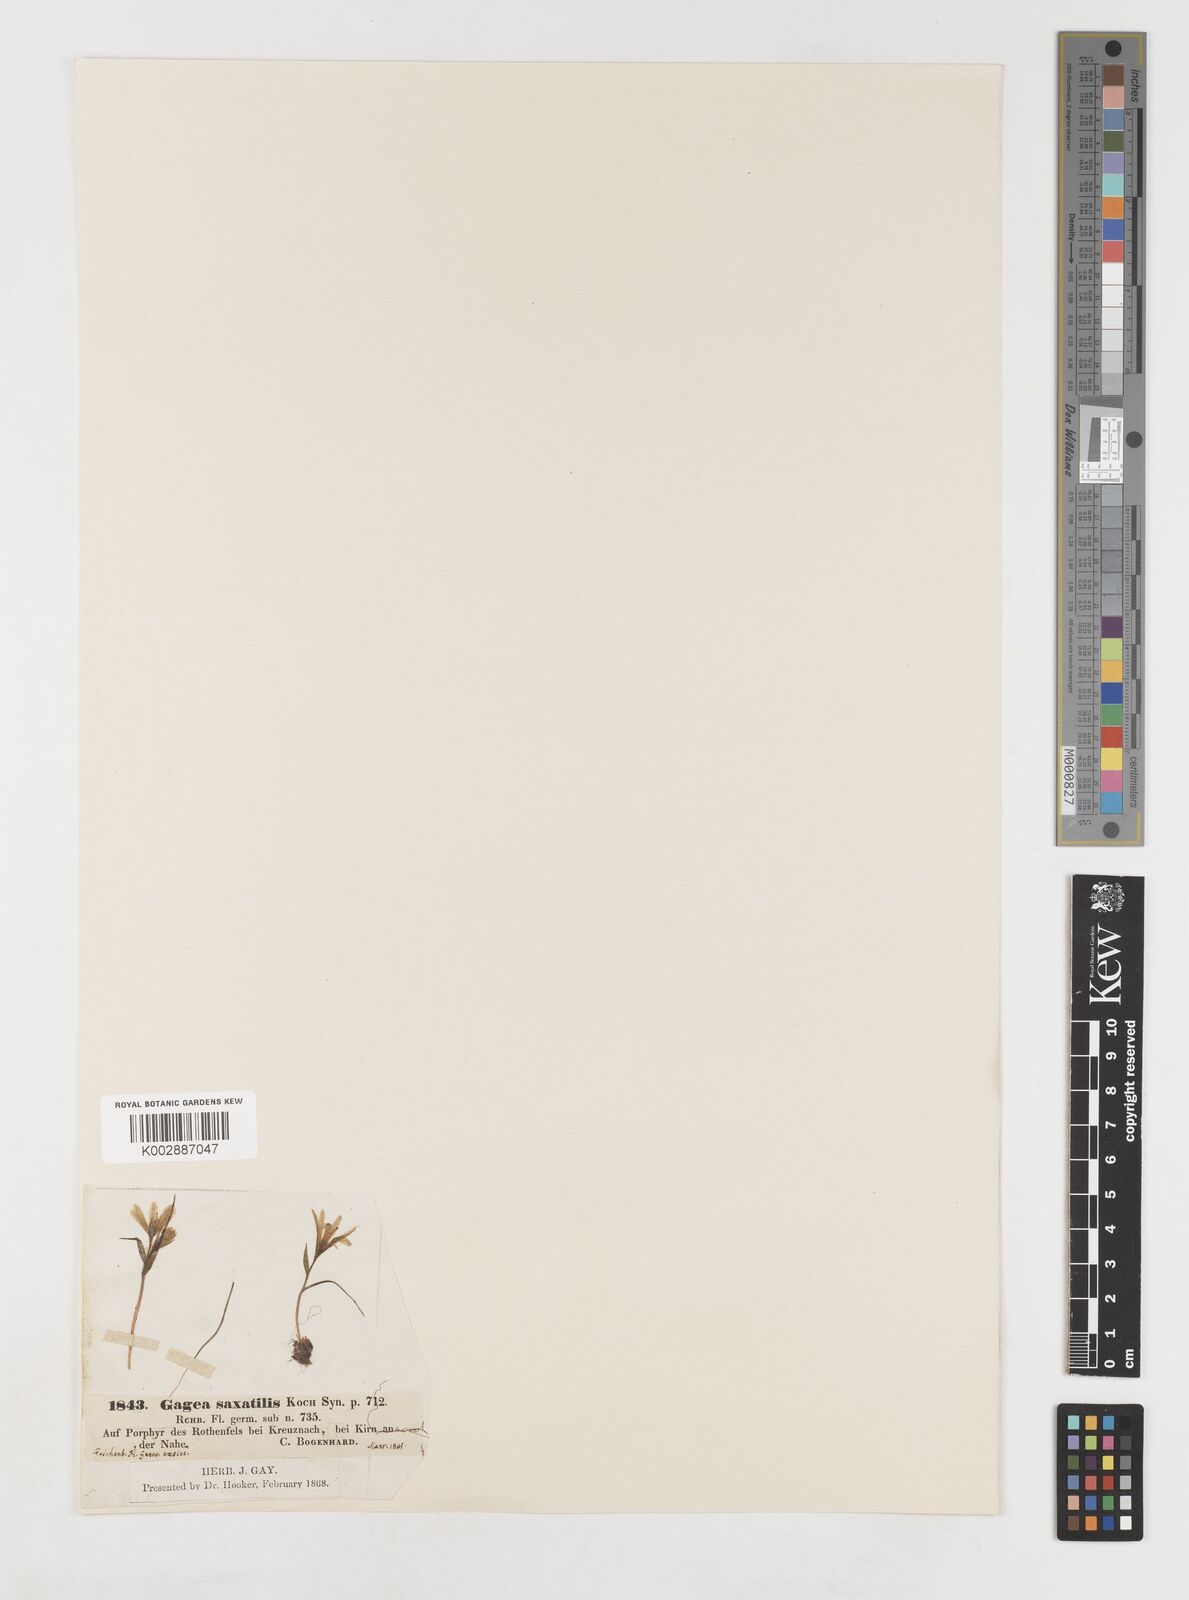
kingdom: Plantae
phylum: Tracheophyta
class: Liliopsida
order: Liliales
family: Liliaceae
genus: Gagea
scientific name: Gagea bohemica
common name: Early star-of-bethlehem
